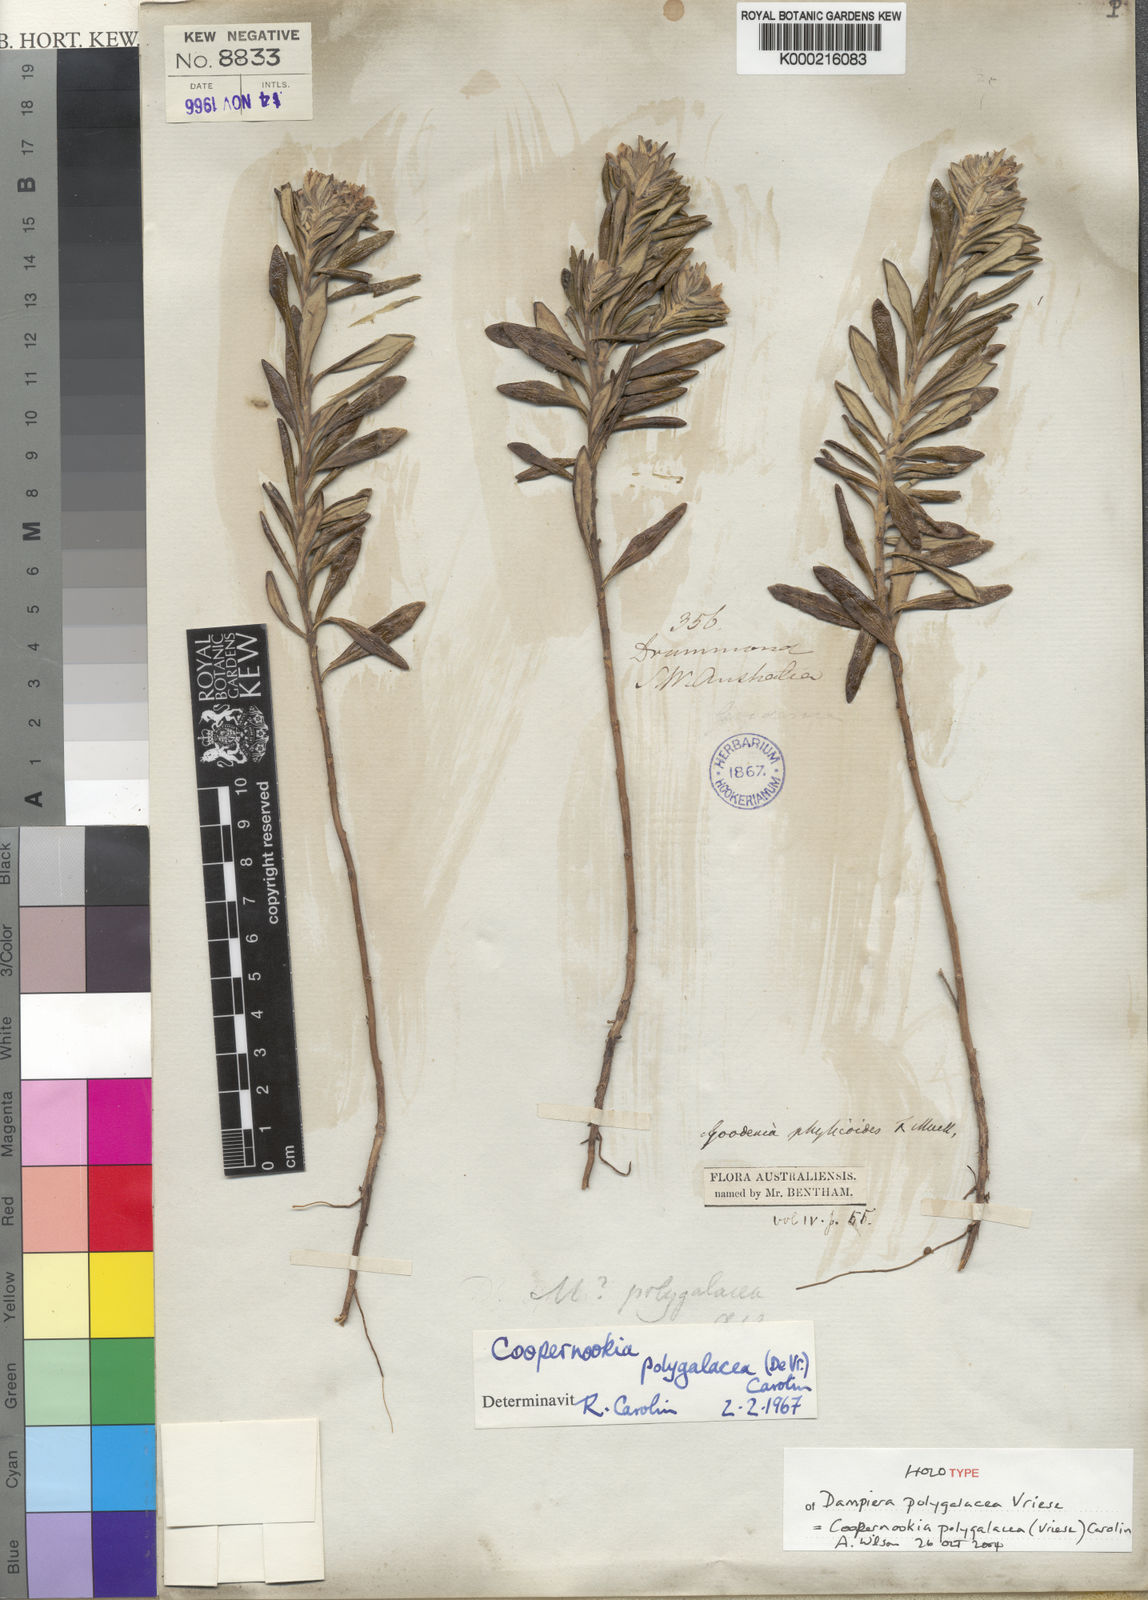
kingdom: Plantae
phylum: Tracheophyta
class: Magnoliopsida
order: Asterales
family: Goodeniaceae
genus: Goodenia
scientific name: Goodenia phylicoides
